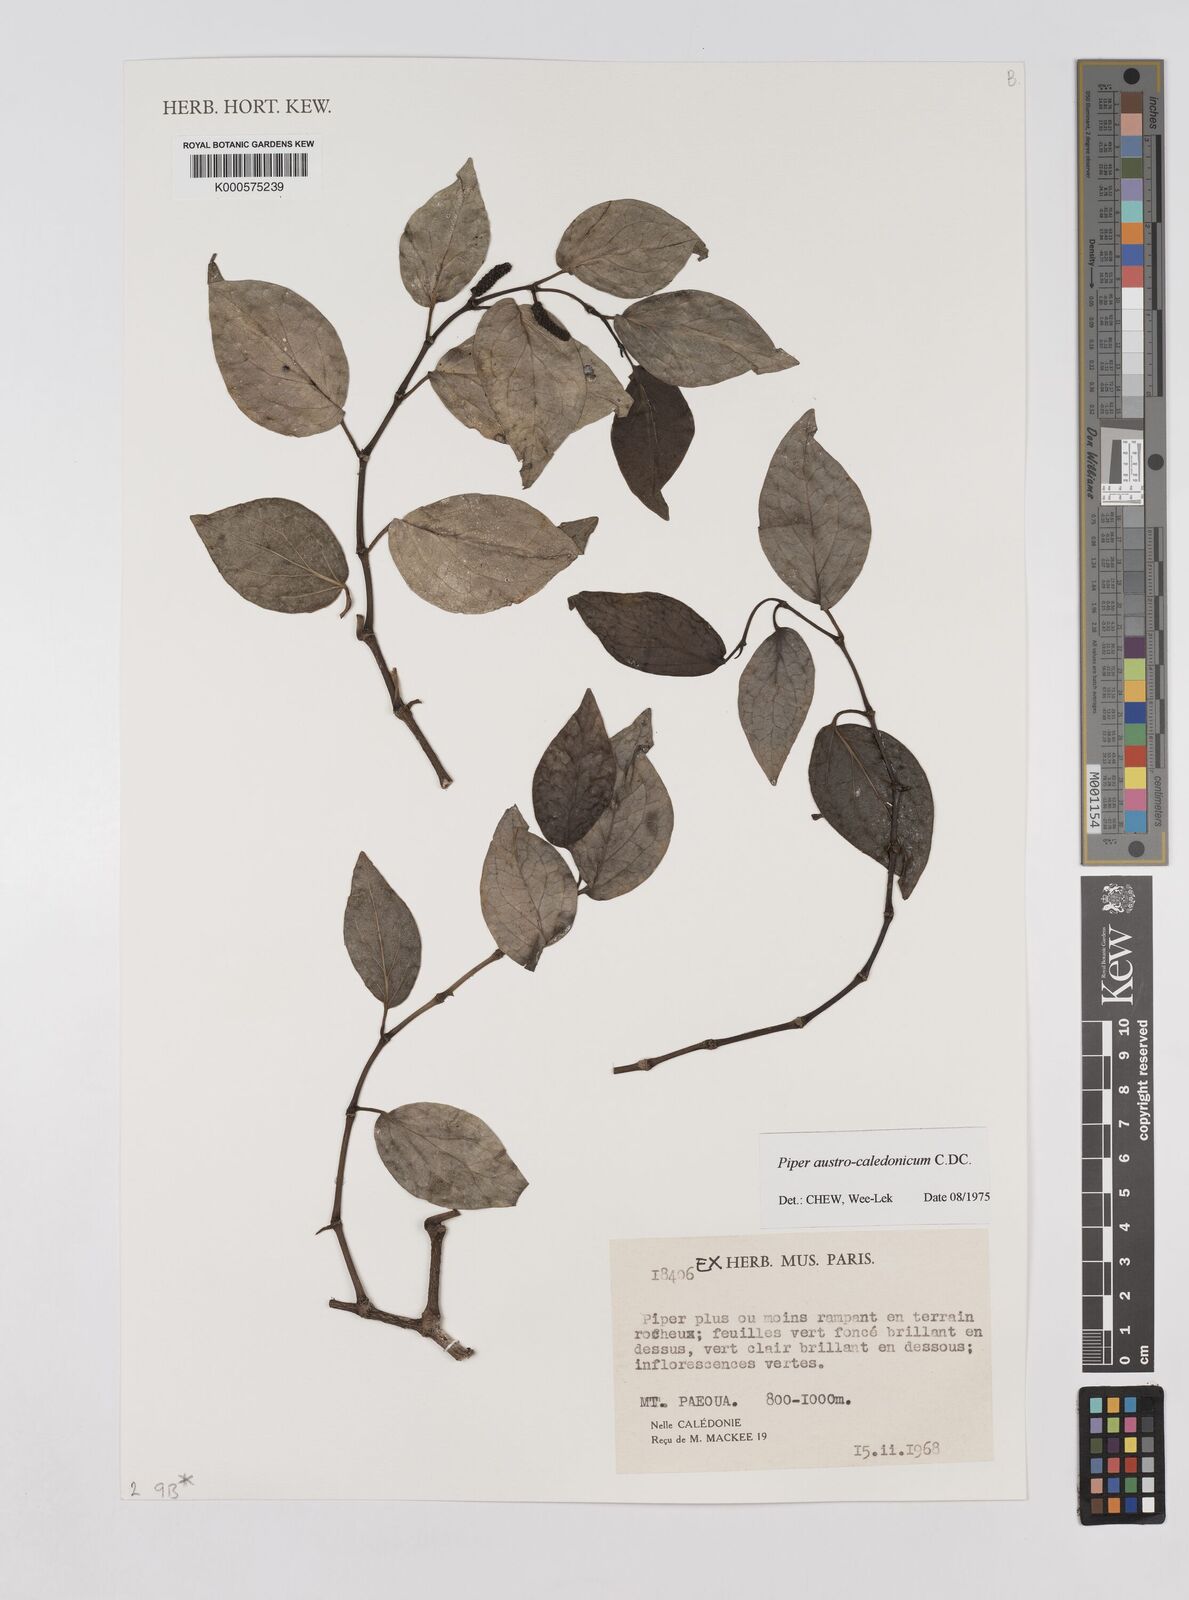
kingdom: Plantae
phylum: Tracheophyta
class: Magnoliopsida
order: Piperales
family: Piperaceae
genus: Piper
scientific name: Piper insectifugum
